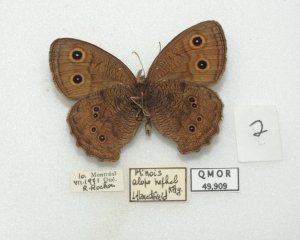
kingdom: Animalia
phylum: Arthropoda
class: Insecta
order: Lepidoptera
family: Nymphalidae
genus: Cercyonis
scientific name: Cercyonis pegala
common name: Common Wood-Nymph
